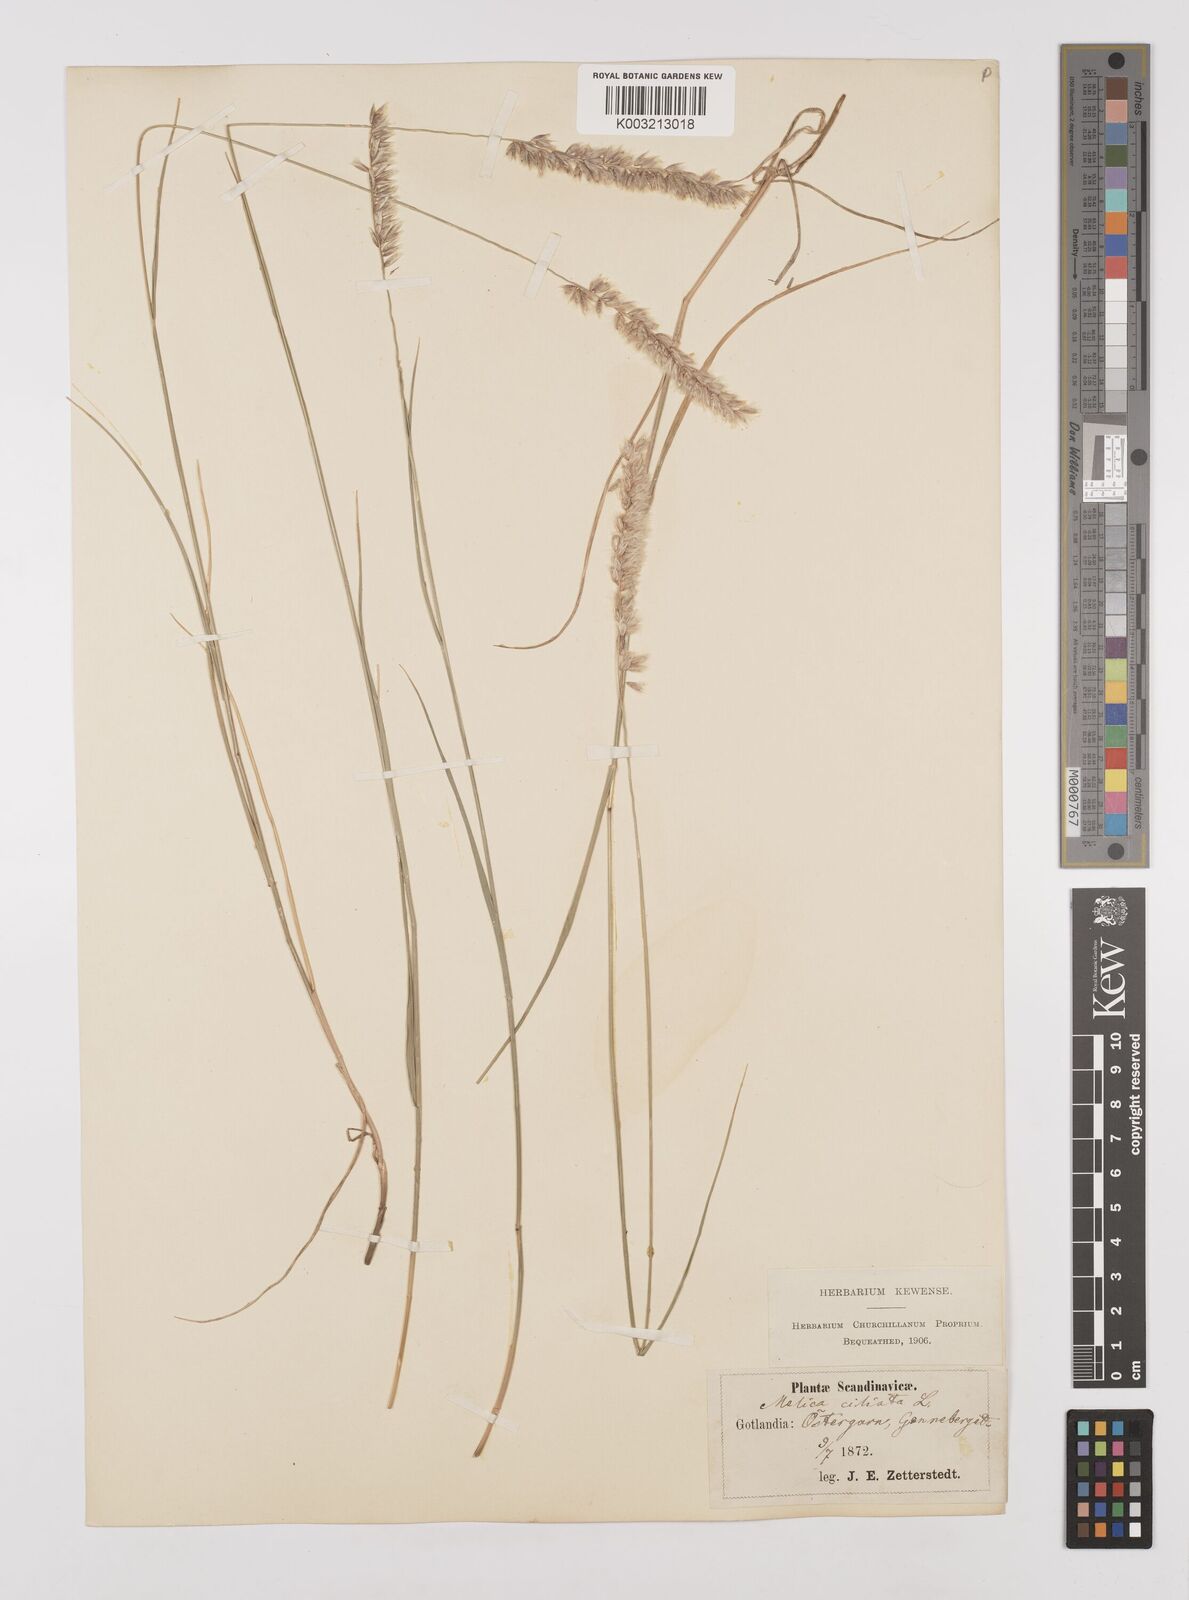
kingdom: Plantae
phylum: Tracheophyta
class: Liliopsida
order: Poales
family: Poaceae
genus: Melica
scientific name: Melica ciliata
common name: Hairy melicgrass
